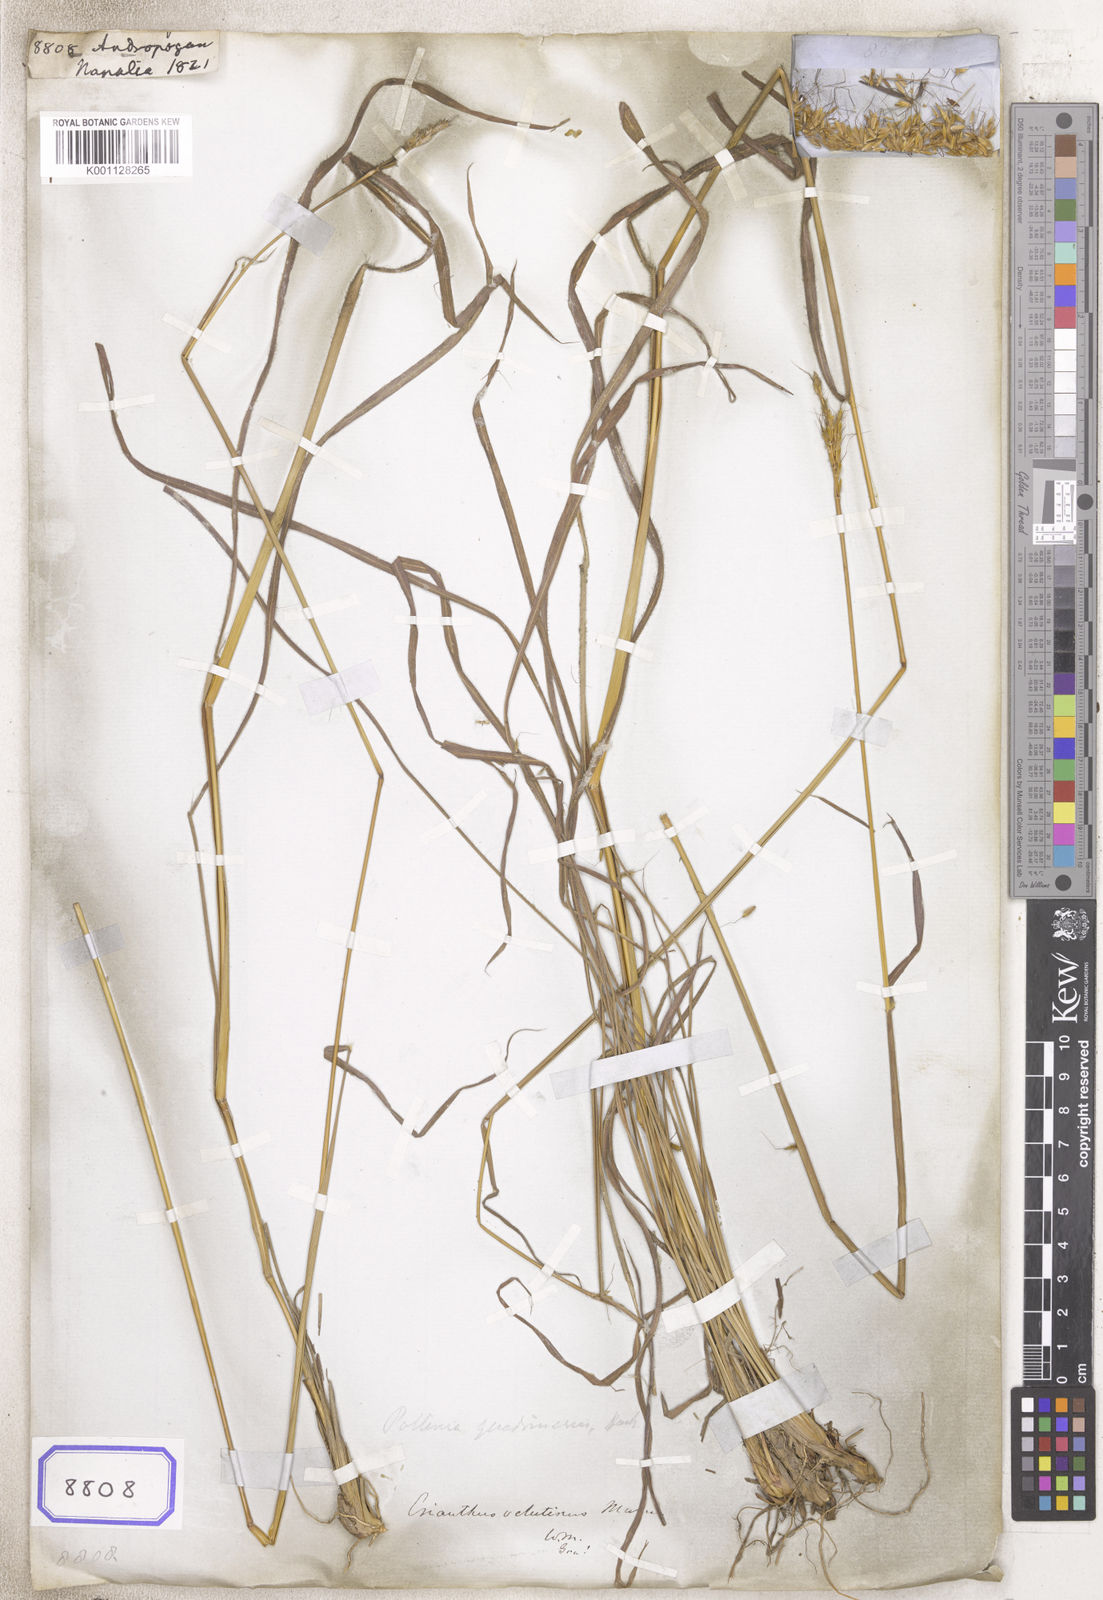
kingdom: Plantae
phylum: Tracheophyta
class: Liliopsida
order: Poales
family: Poaceae
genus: Andropogon
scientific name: Andropogon
